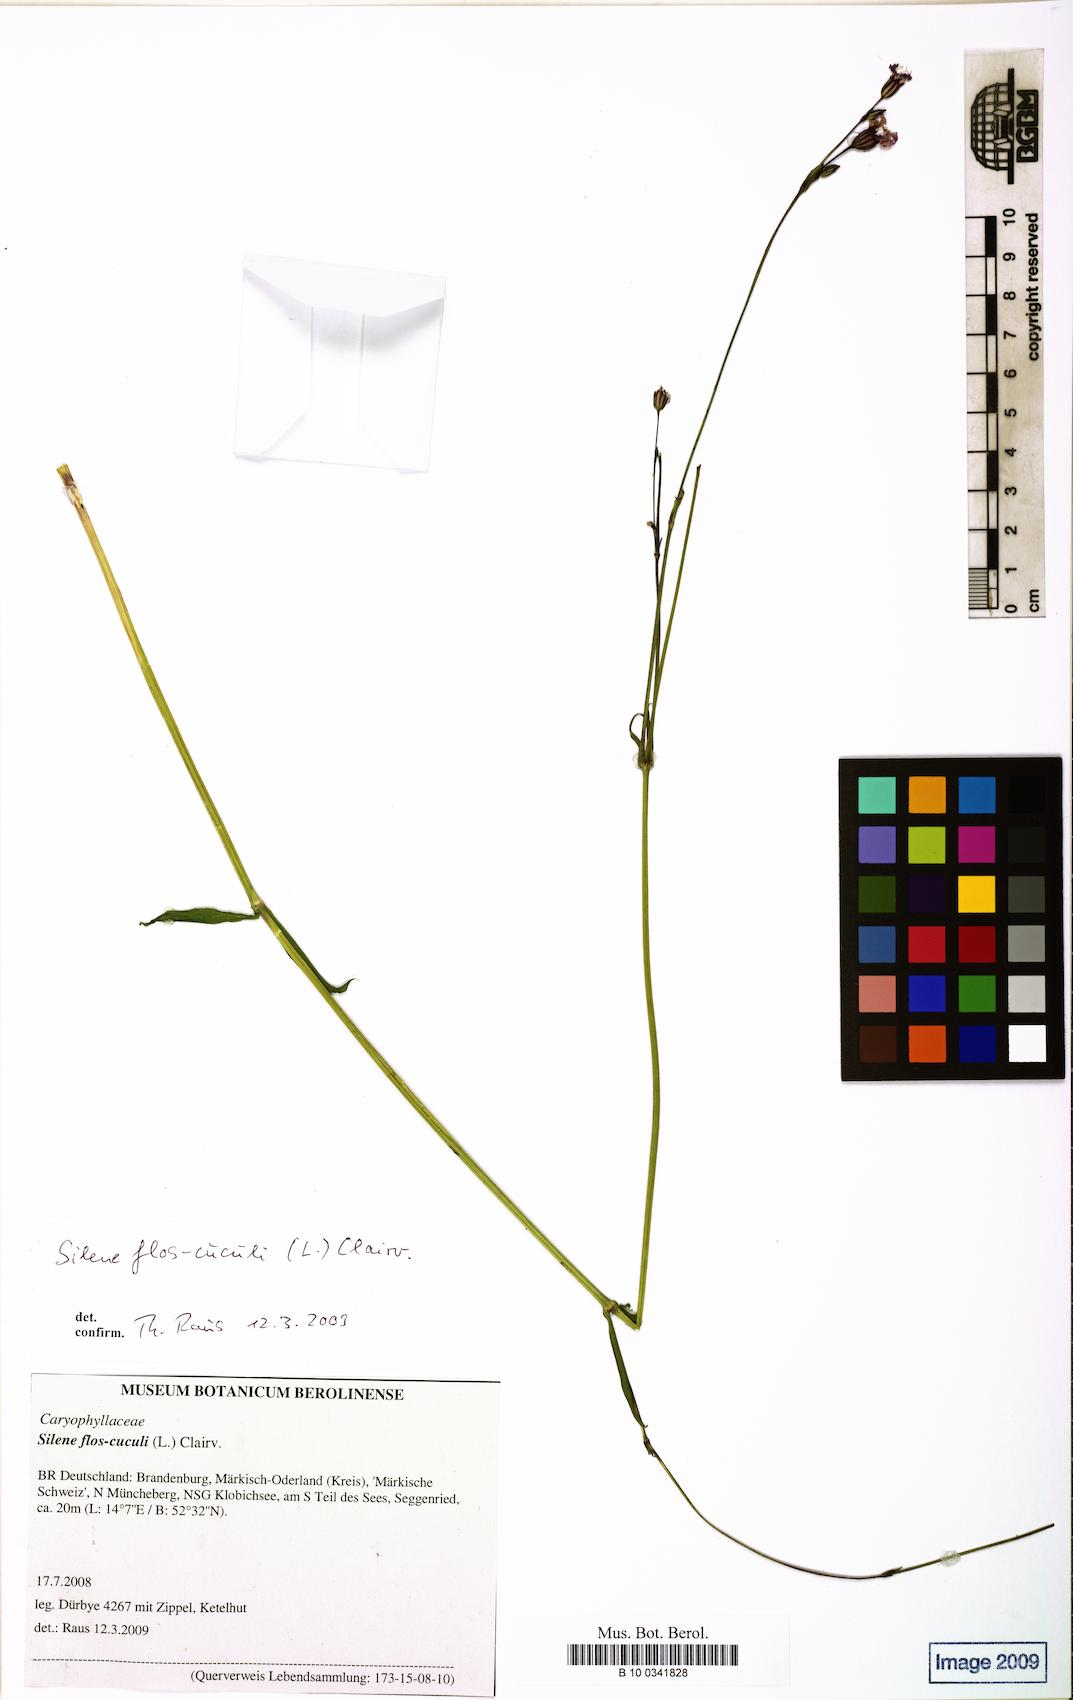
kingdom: Plantae
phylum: Tracheophyta
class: Magnoliopsida
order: Caryophyllales
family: Caryophyllaceae
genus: Silene
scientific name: Silene flos-cuculi
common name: Ragged-robin
